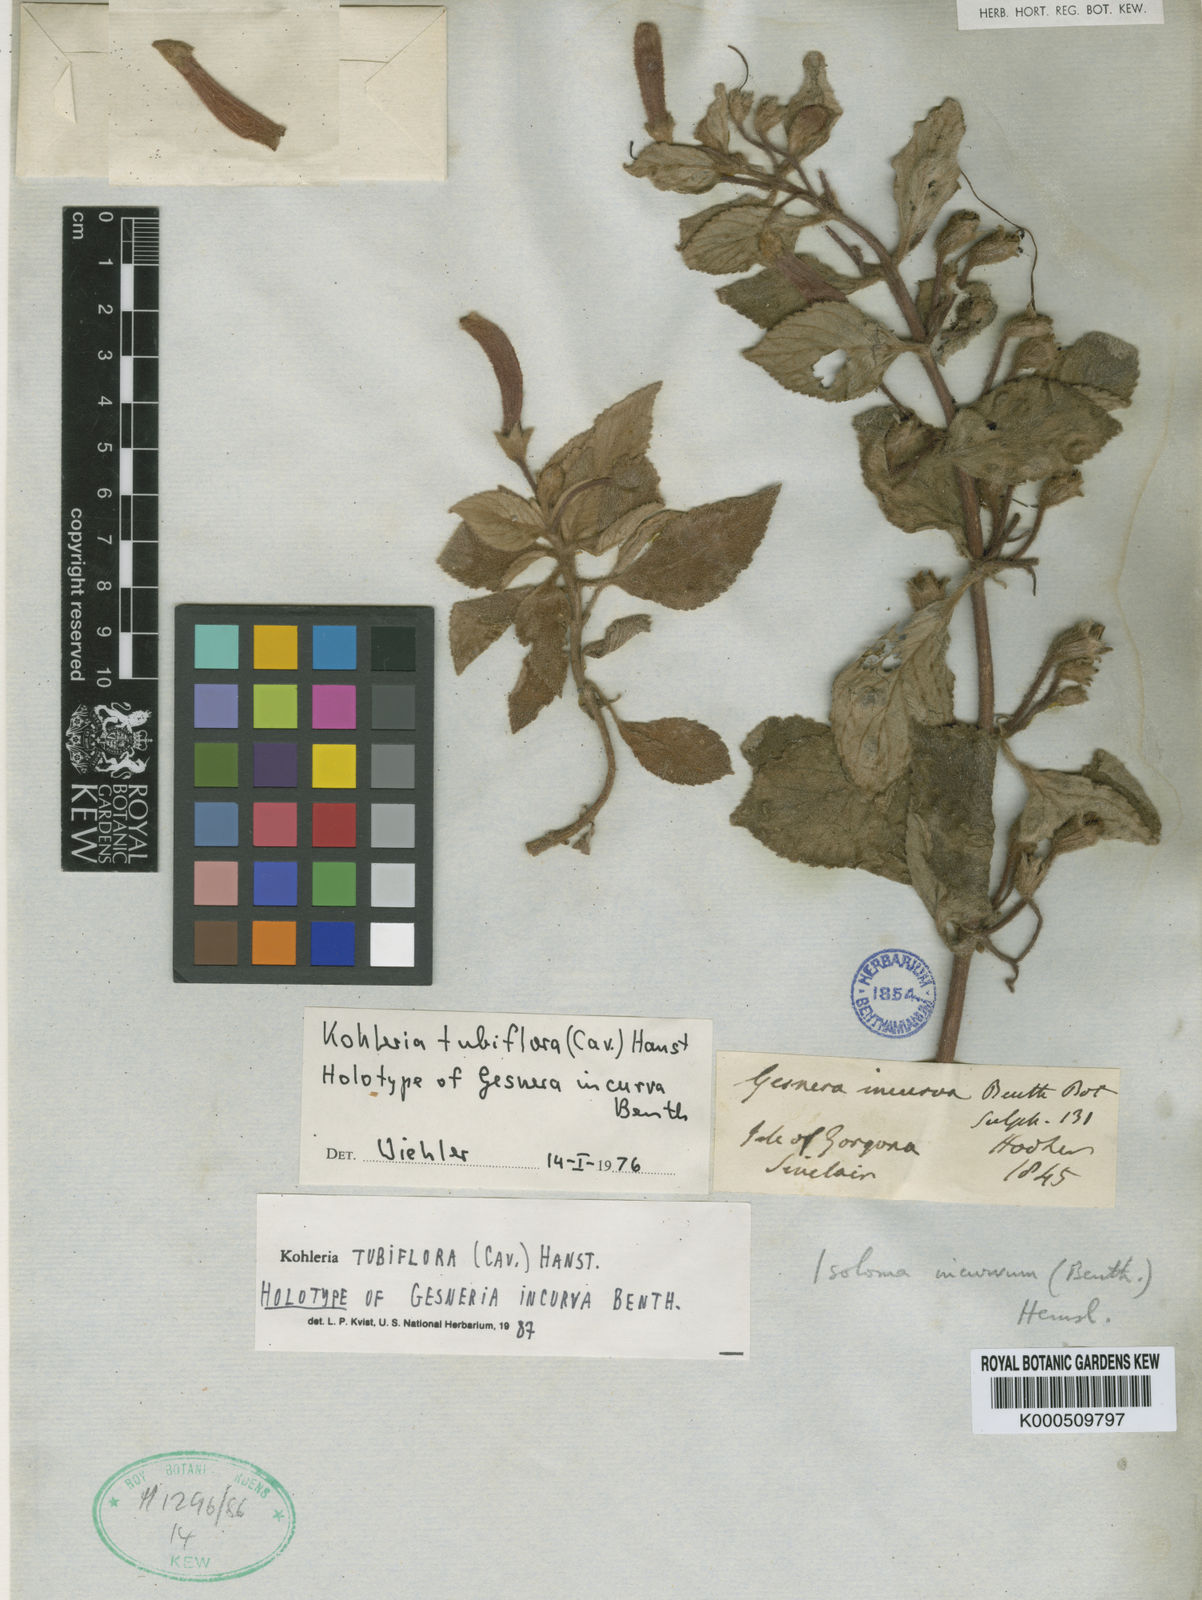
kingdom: Plantae
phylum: Tracheophyta
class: Magnoliopsida
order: Lamiales
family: Gesneriaceae
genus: Kohleria
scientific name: Kohleria tubiflora
